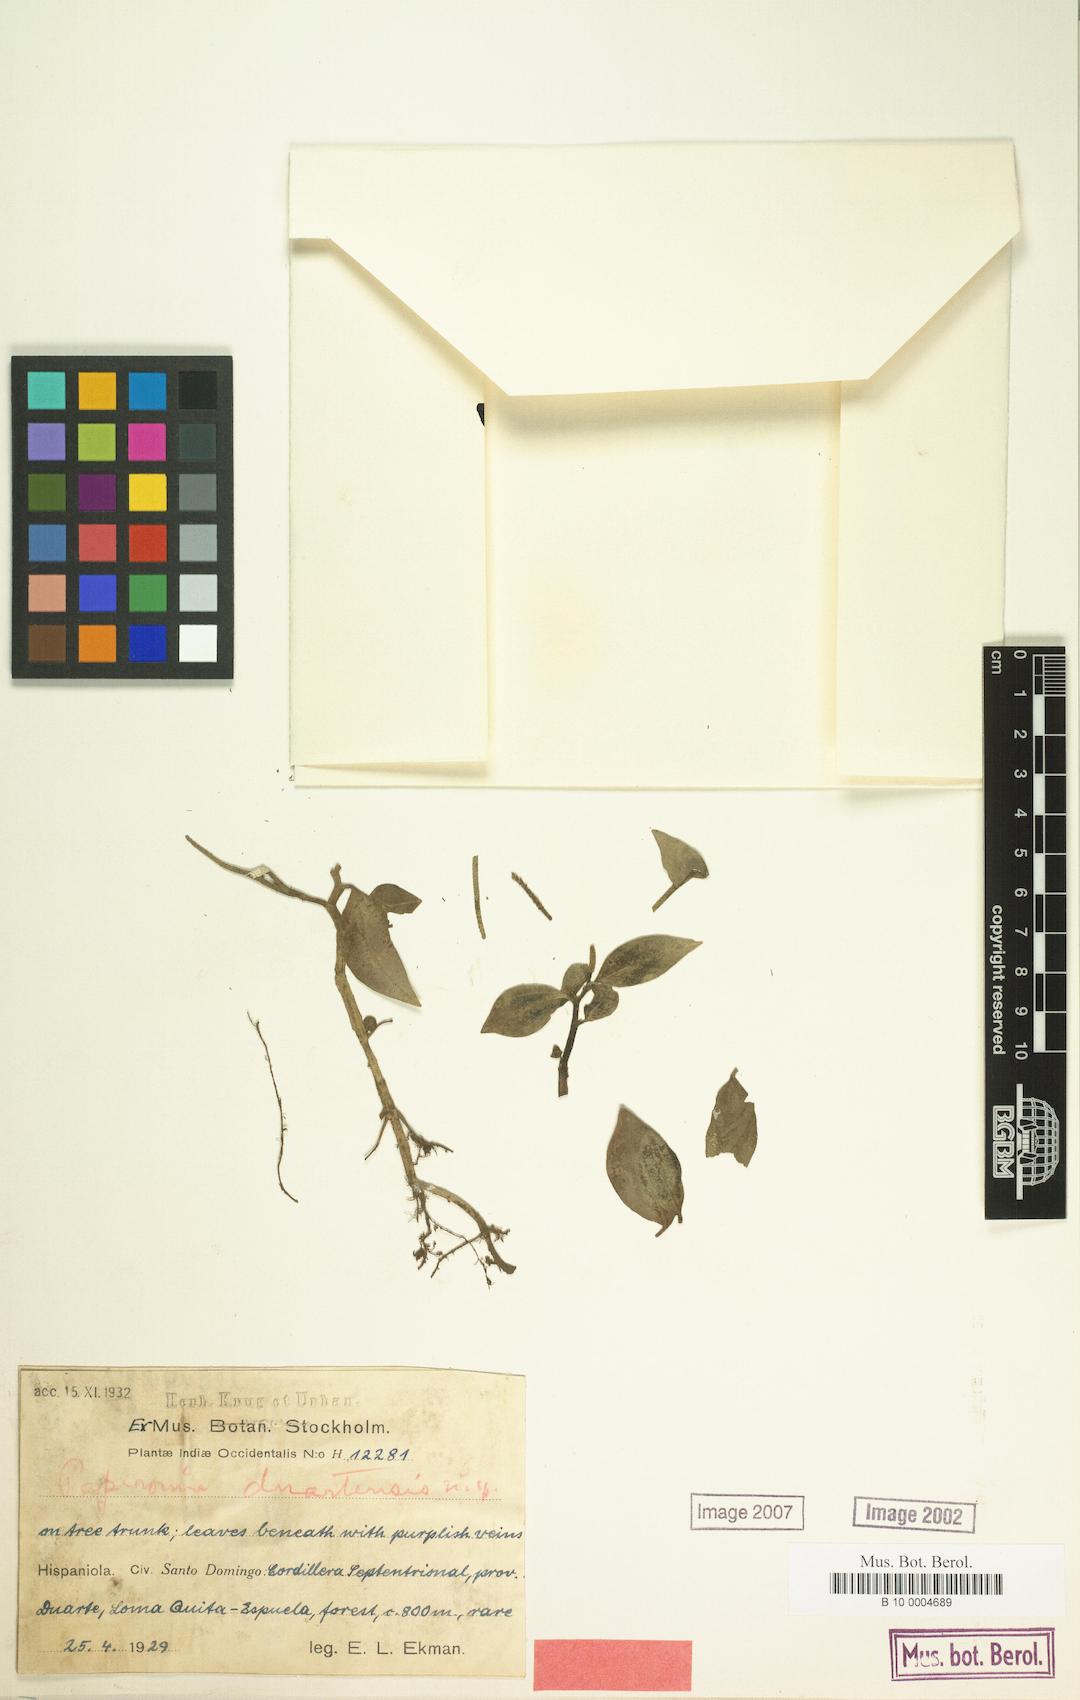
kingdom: Plantae
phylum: Tracheophyta
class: Magnoliopsida
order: Piperales
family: Piperaceae
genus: Peperomia
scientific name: Peperomia maxonii
